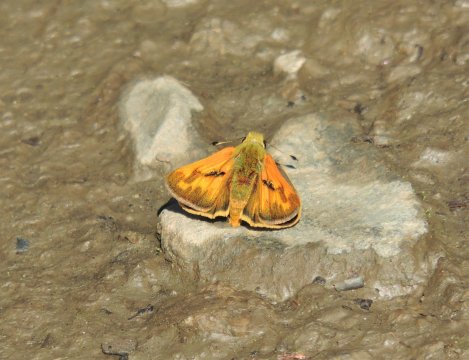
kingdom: Animalia
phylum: Arthropoda
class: Insecta
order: Lepidoptera
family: Hesperiidae
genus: Ochlodes
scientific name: Ochlodes sylvanoides
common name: Woodland Skipper
